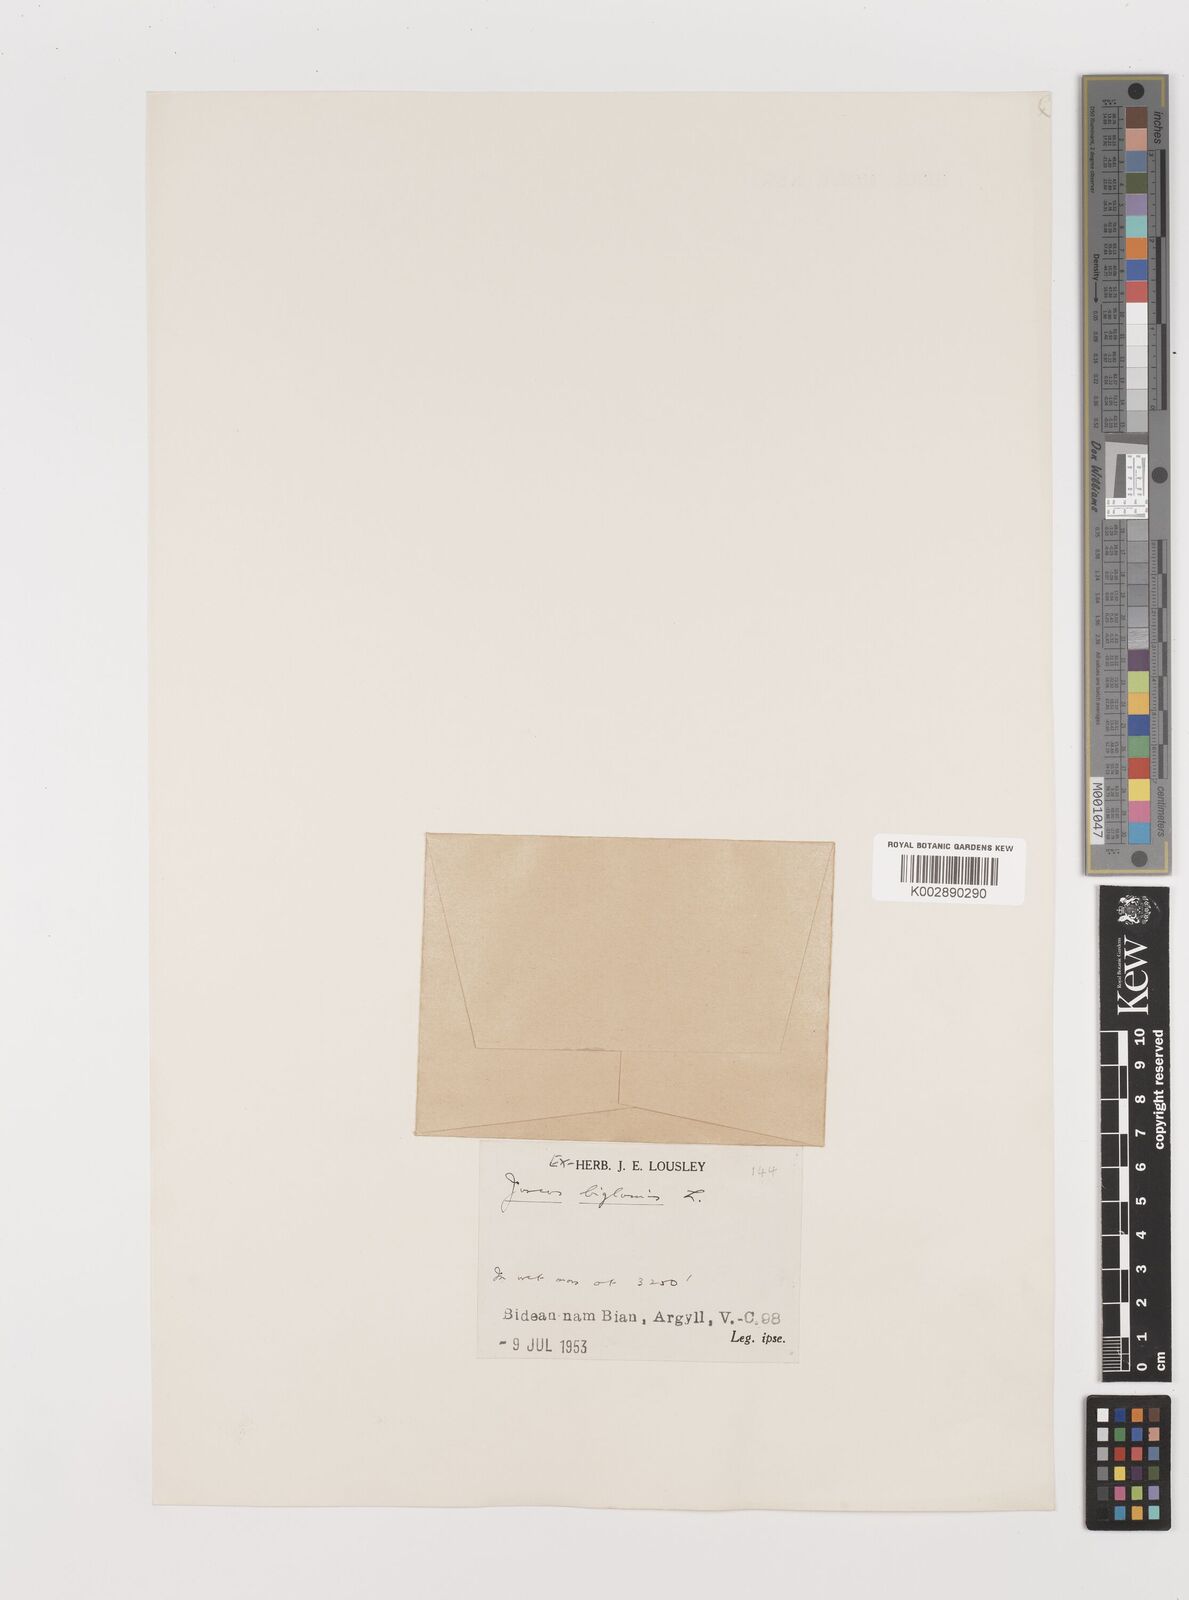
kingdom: Plantae
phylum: Tracheophyta
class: Liliopsida
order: Poales
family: Juncaceae
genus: Juncus
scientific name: Juncus biglumis
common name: Two-flowered rush
